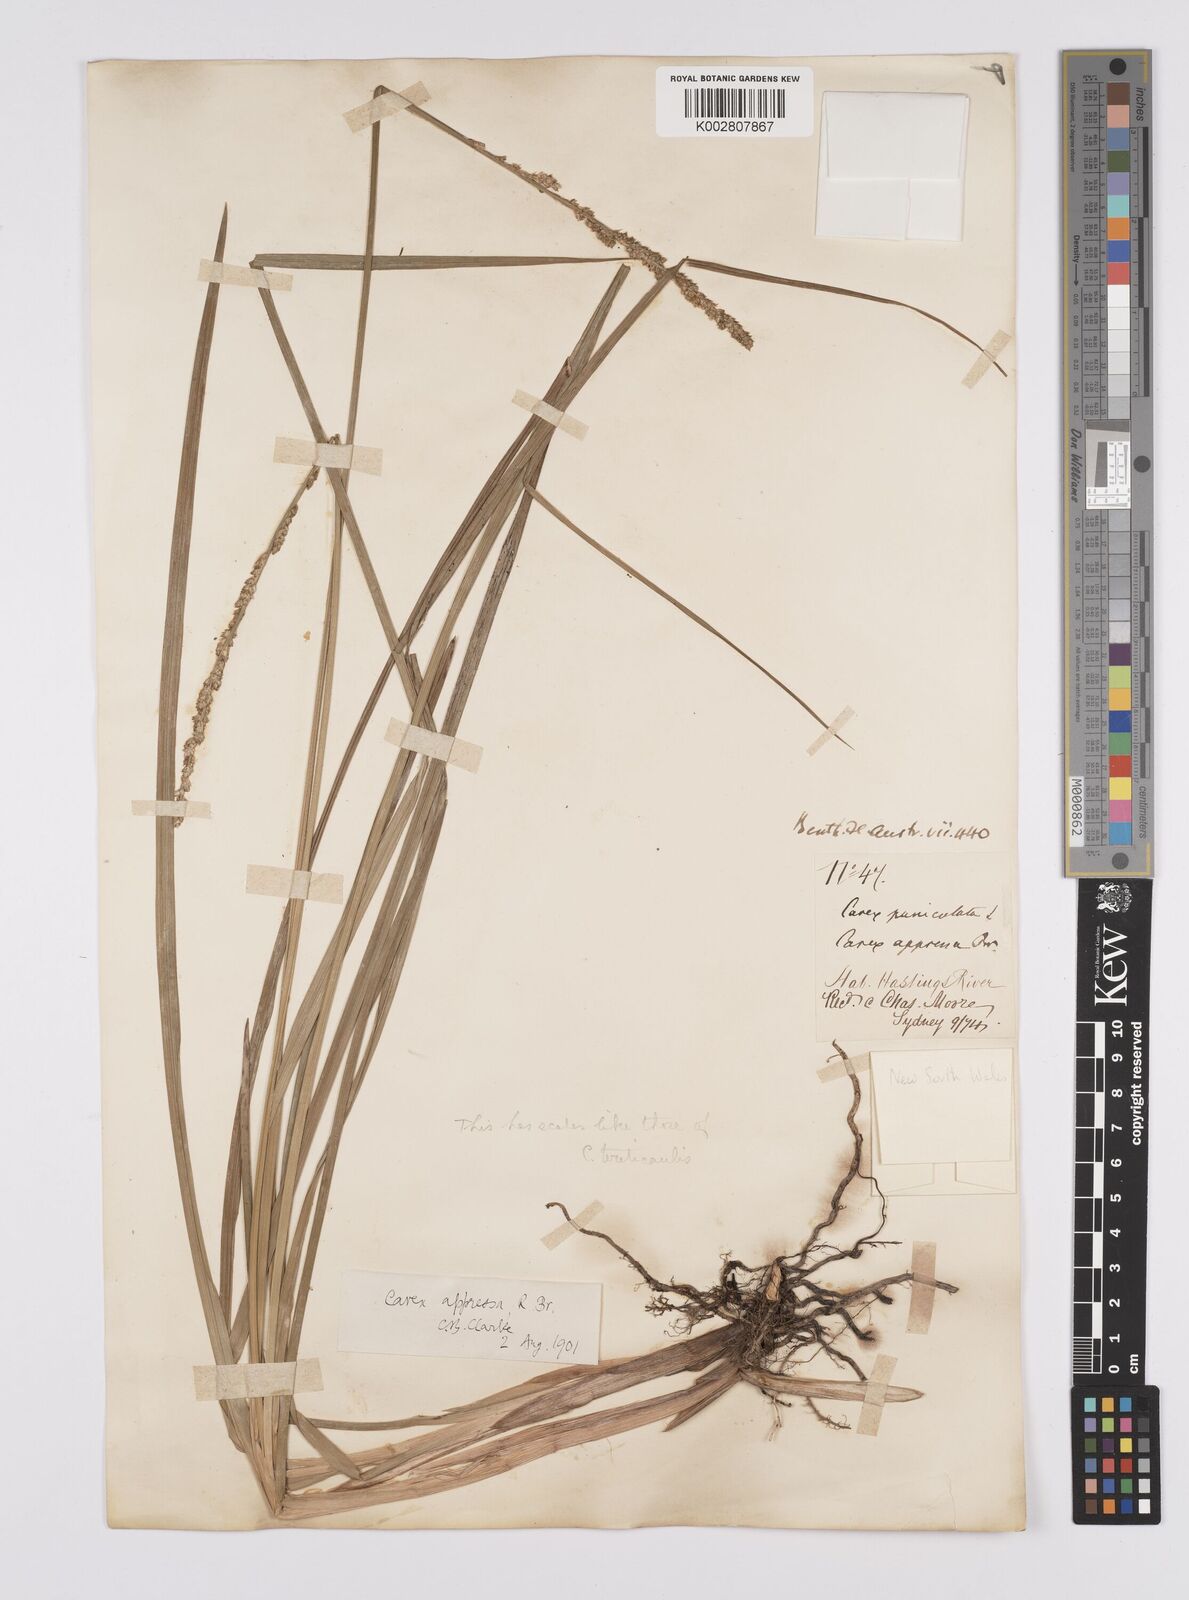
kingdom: Plantae
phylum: Tracheophyta
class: Liliopsida
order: Poales
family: Cyperaceae
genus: Carex
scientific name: Carex appressa
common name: Tussock sedge
